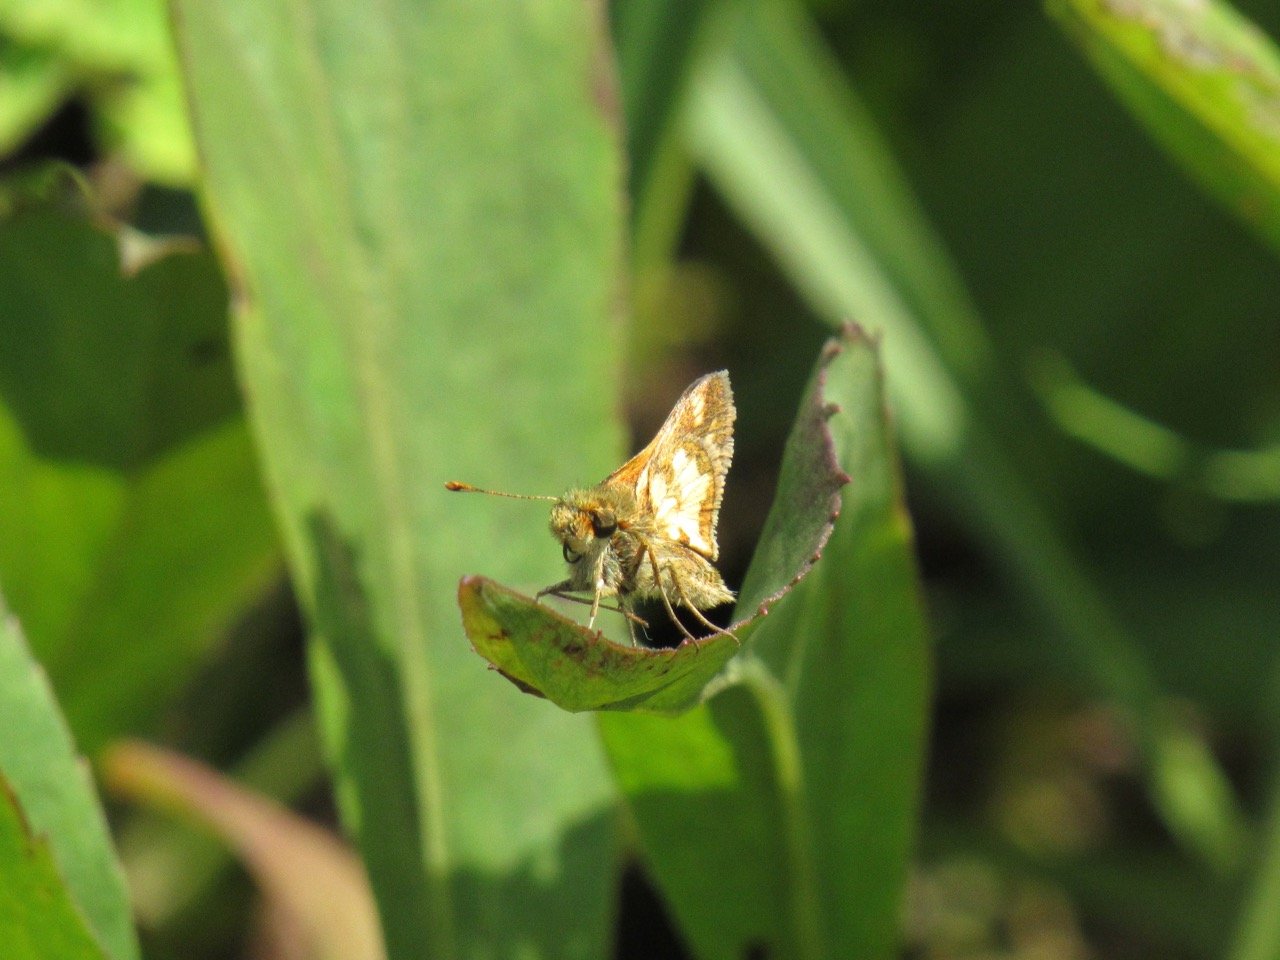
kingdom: Animalia
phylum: Arthropoda
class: Insecta
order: Lepidoptera
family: Hesperiidae
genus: Polites
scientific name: Polites coras
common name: Peck's Skipper
